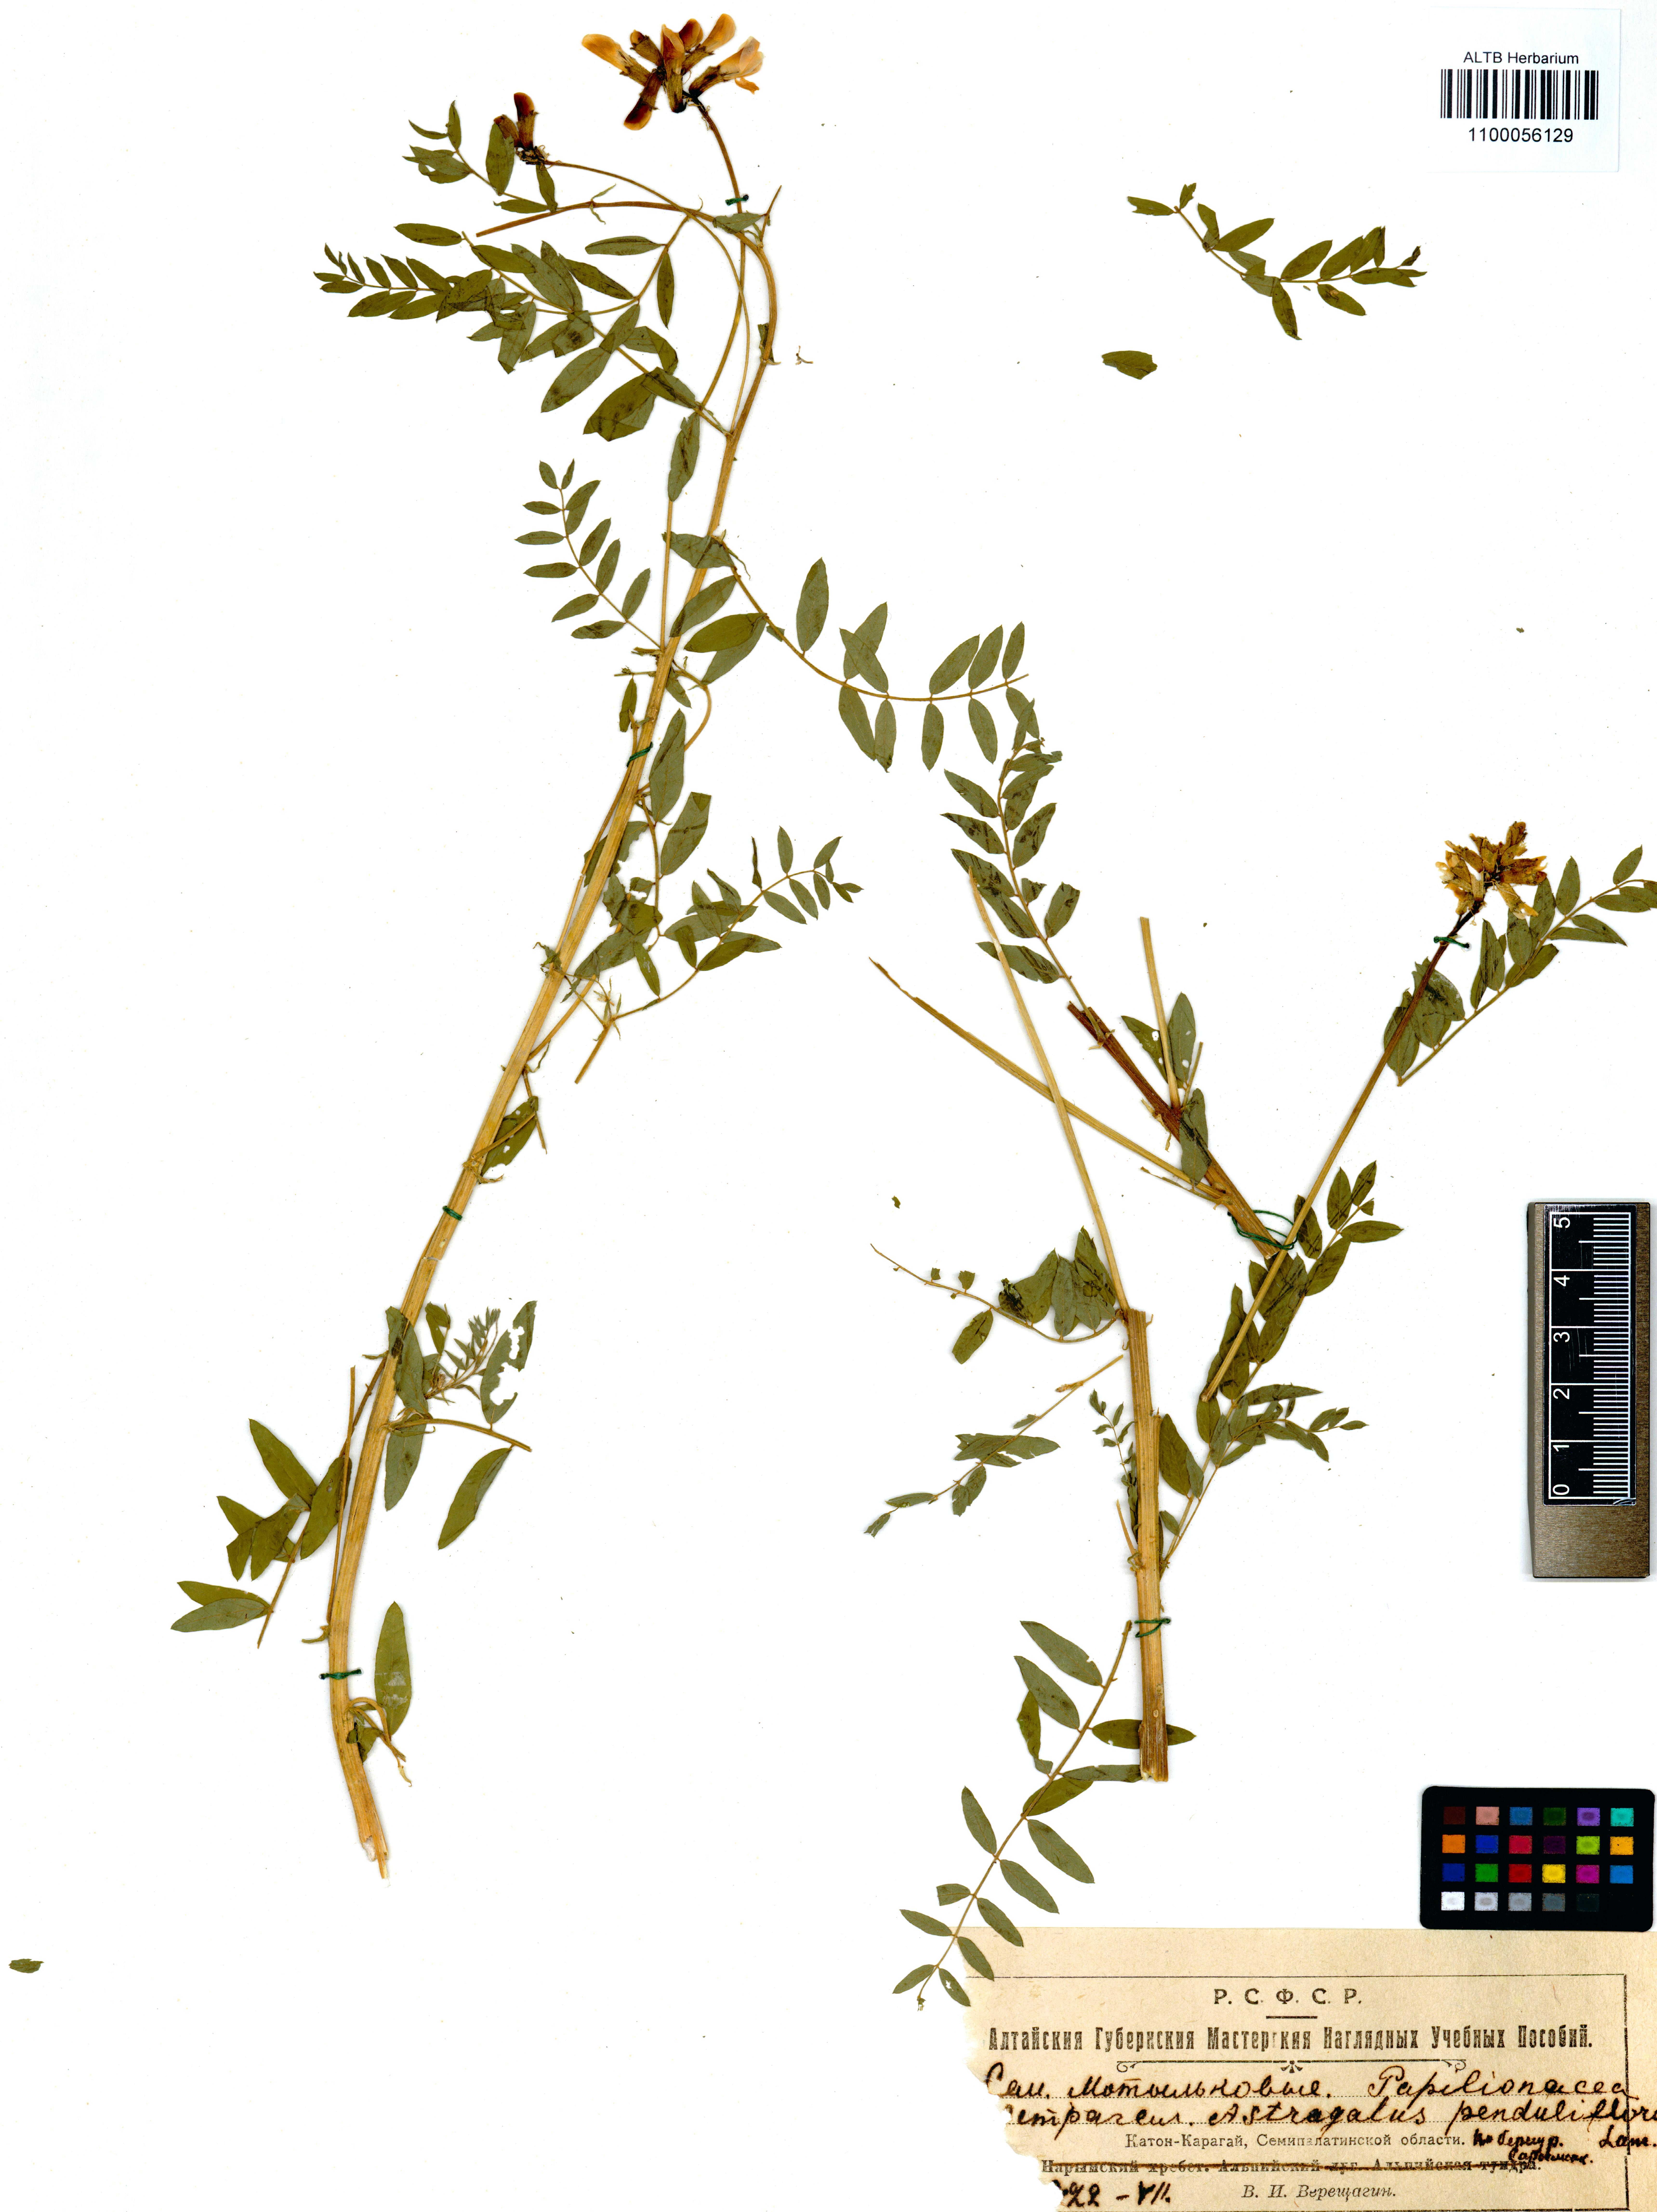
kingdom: Plantae
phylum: Tracheophyta
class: Magnoliopsida
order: Fabales
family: Fabaceae
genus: Astragalus
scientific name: Astragalus penduliflorus
